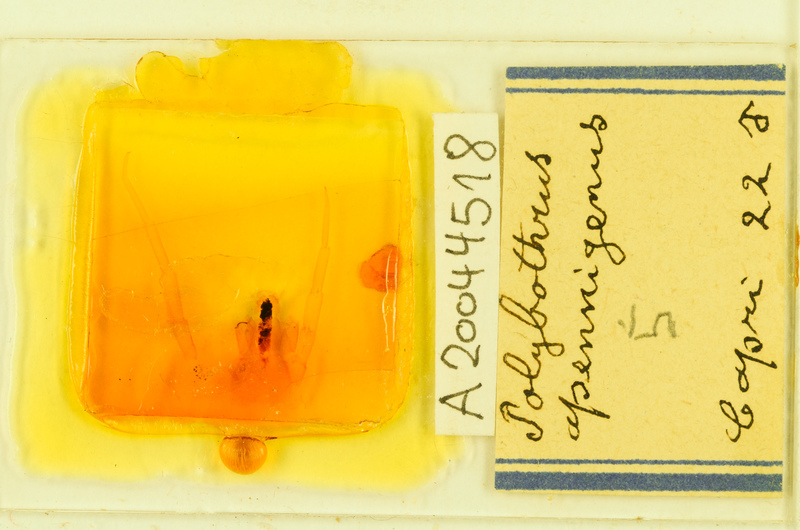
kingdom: Animalia
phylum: Arthropoda
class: Chilopoda
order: Lithobiomorpha
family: Lithobiidae
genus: Polybothrus
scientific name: Polybothrus
